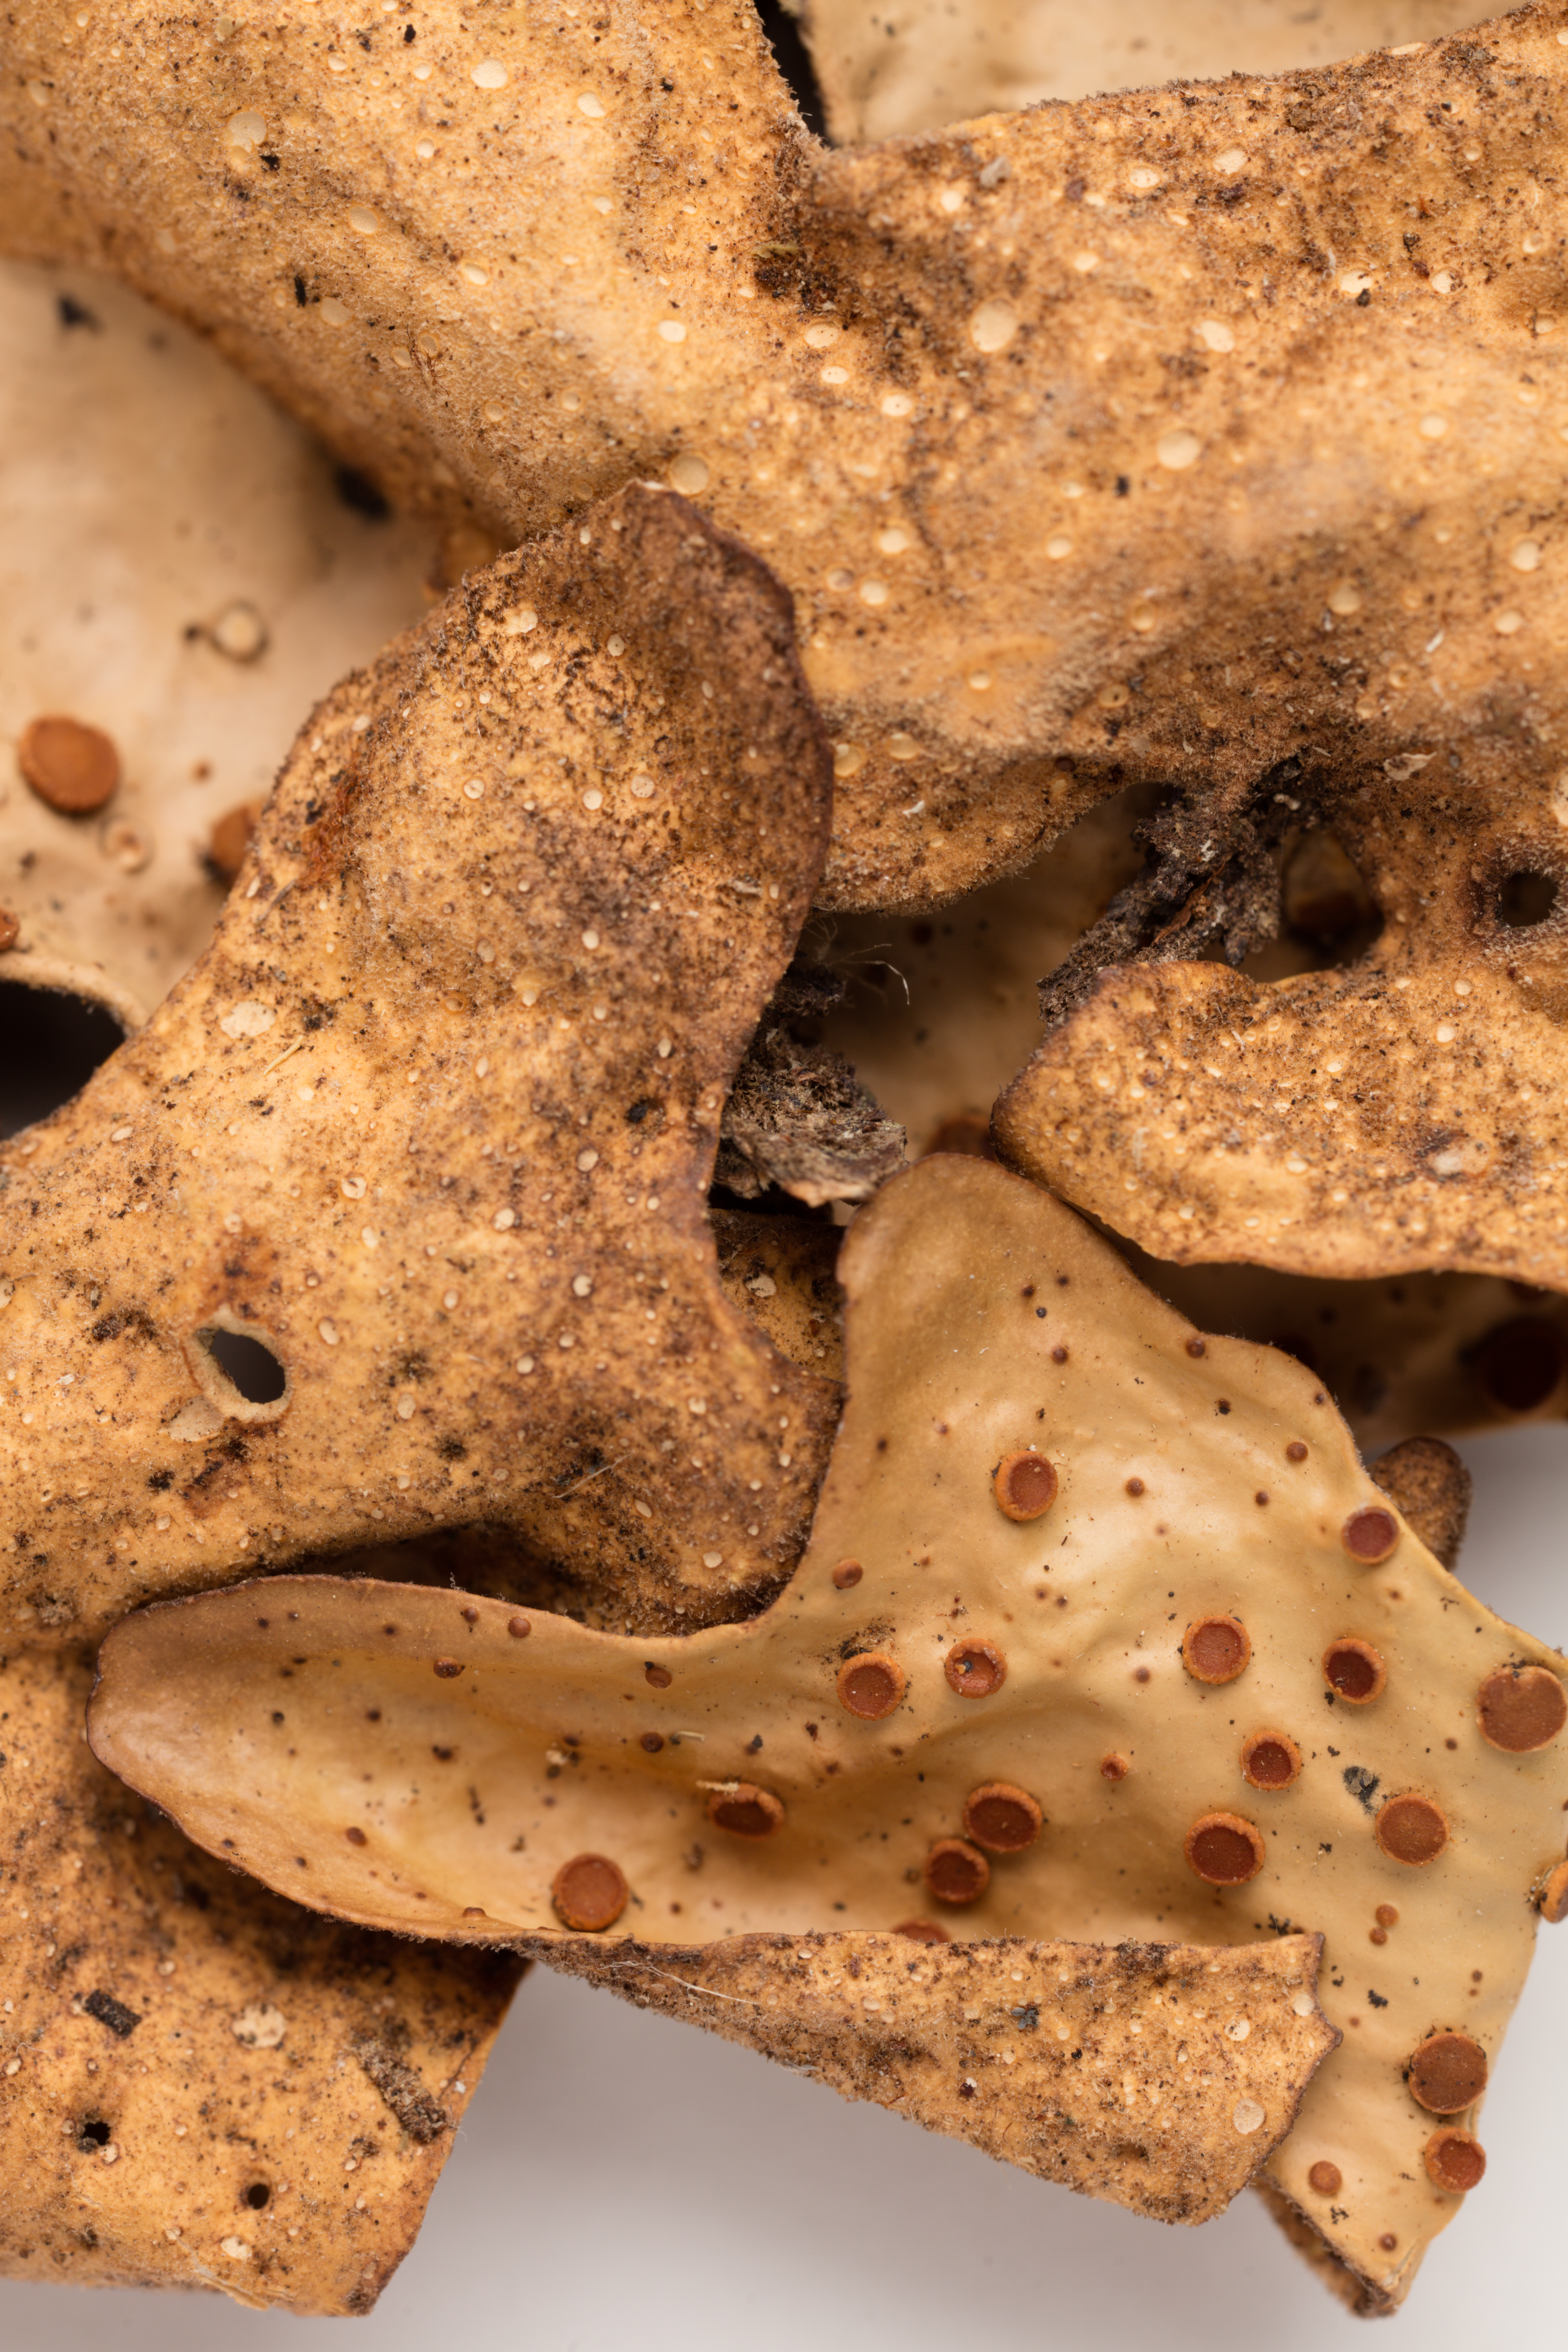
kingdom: Fungi
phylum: Ascomycota
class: Lecanoromycetes
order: Peltigerales
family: Lobariaceae
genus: Sticta
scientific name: Sticta latifrons
